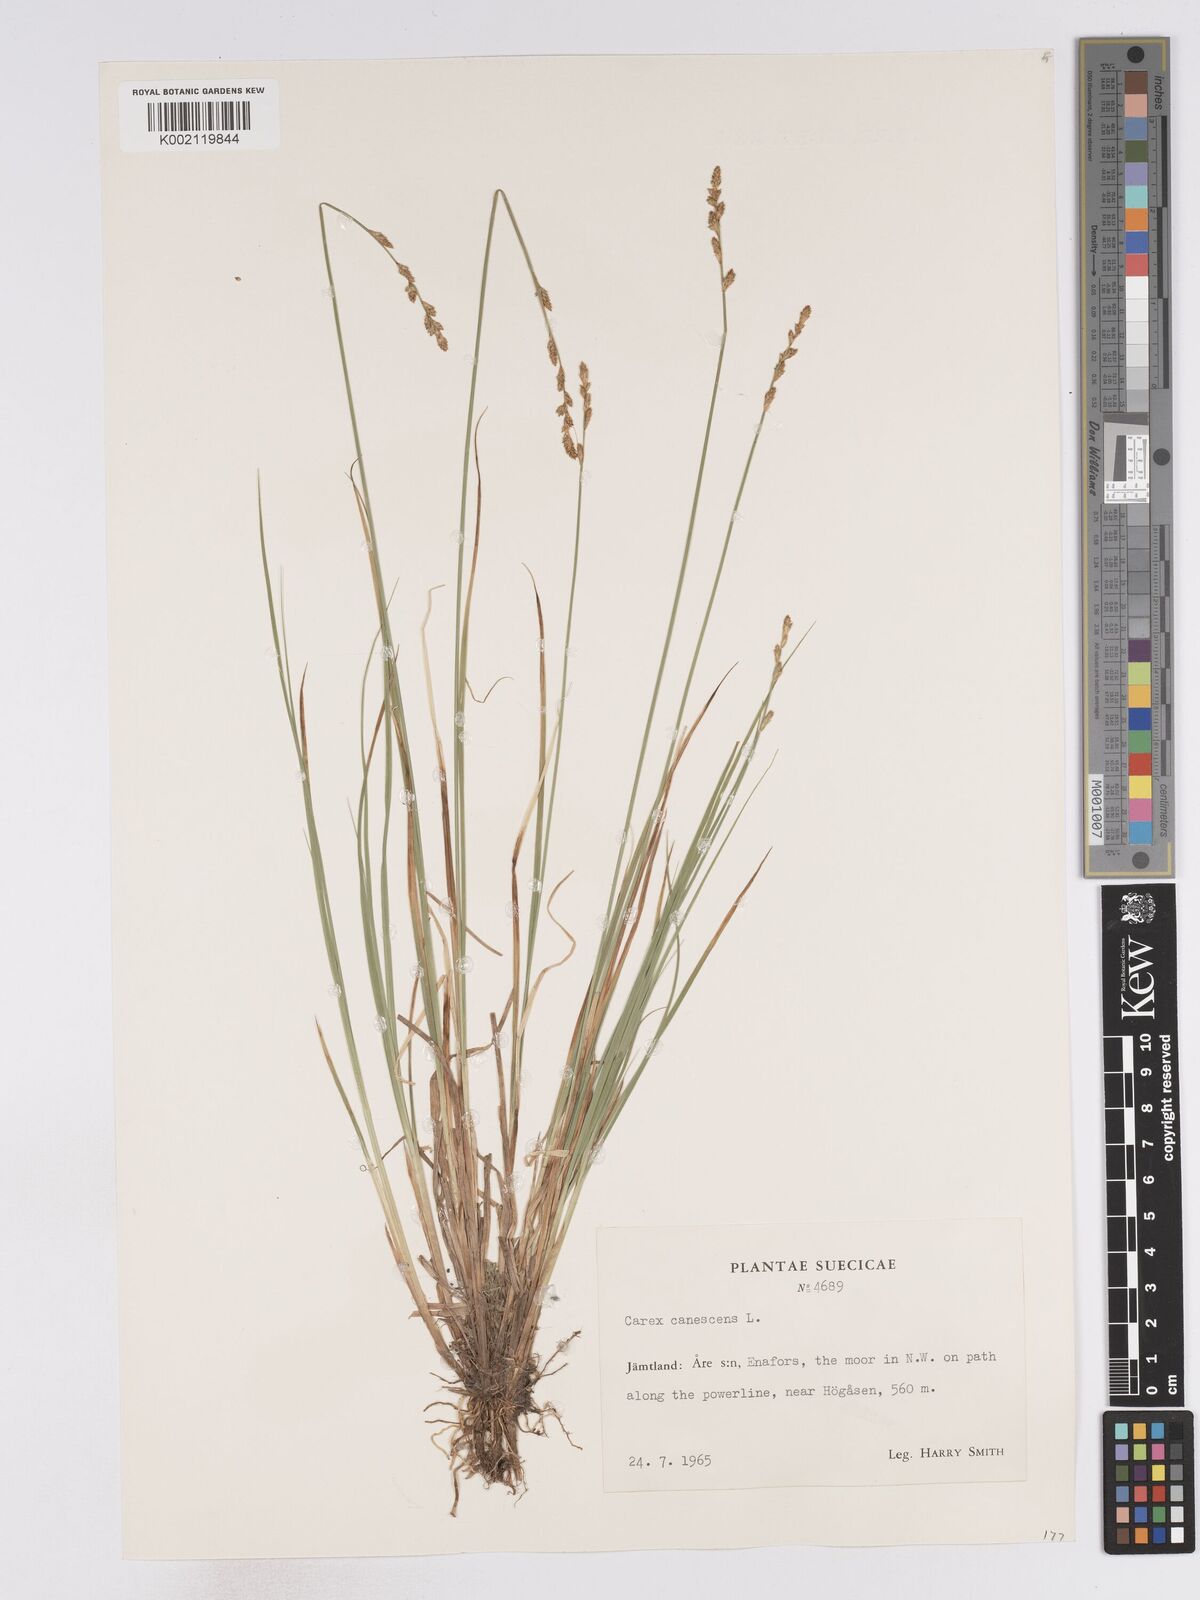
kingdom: Plantae
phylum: Tracheophyta
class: Liliopsida
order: Poales
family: Cyperaceae
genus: Carex
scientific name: Carex curta
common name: White sedge
